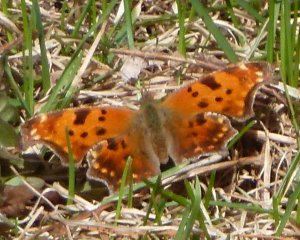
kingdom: Animalia
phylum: Arthropoda
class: Insecta
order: Lepidoptera
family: Nymphalidae
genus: Polygonia
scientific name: Polygonia comma
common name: Eastern Comma
